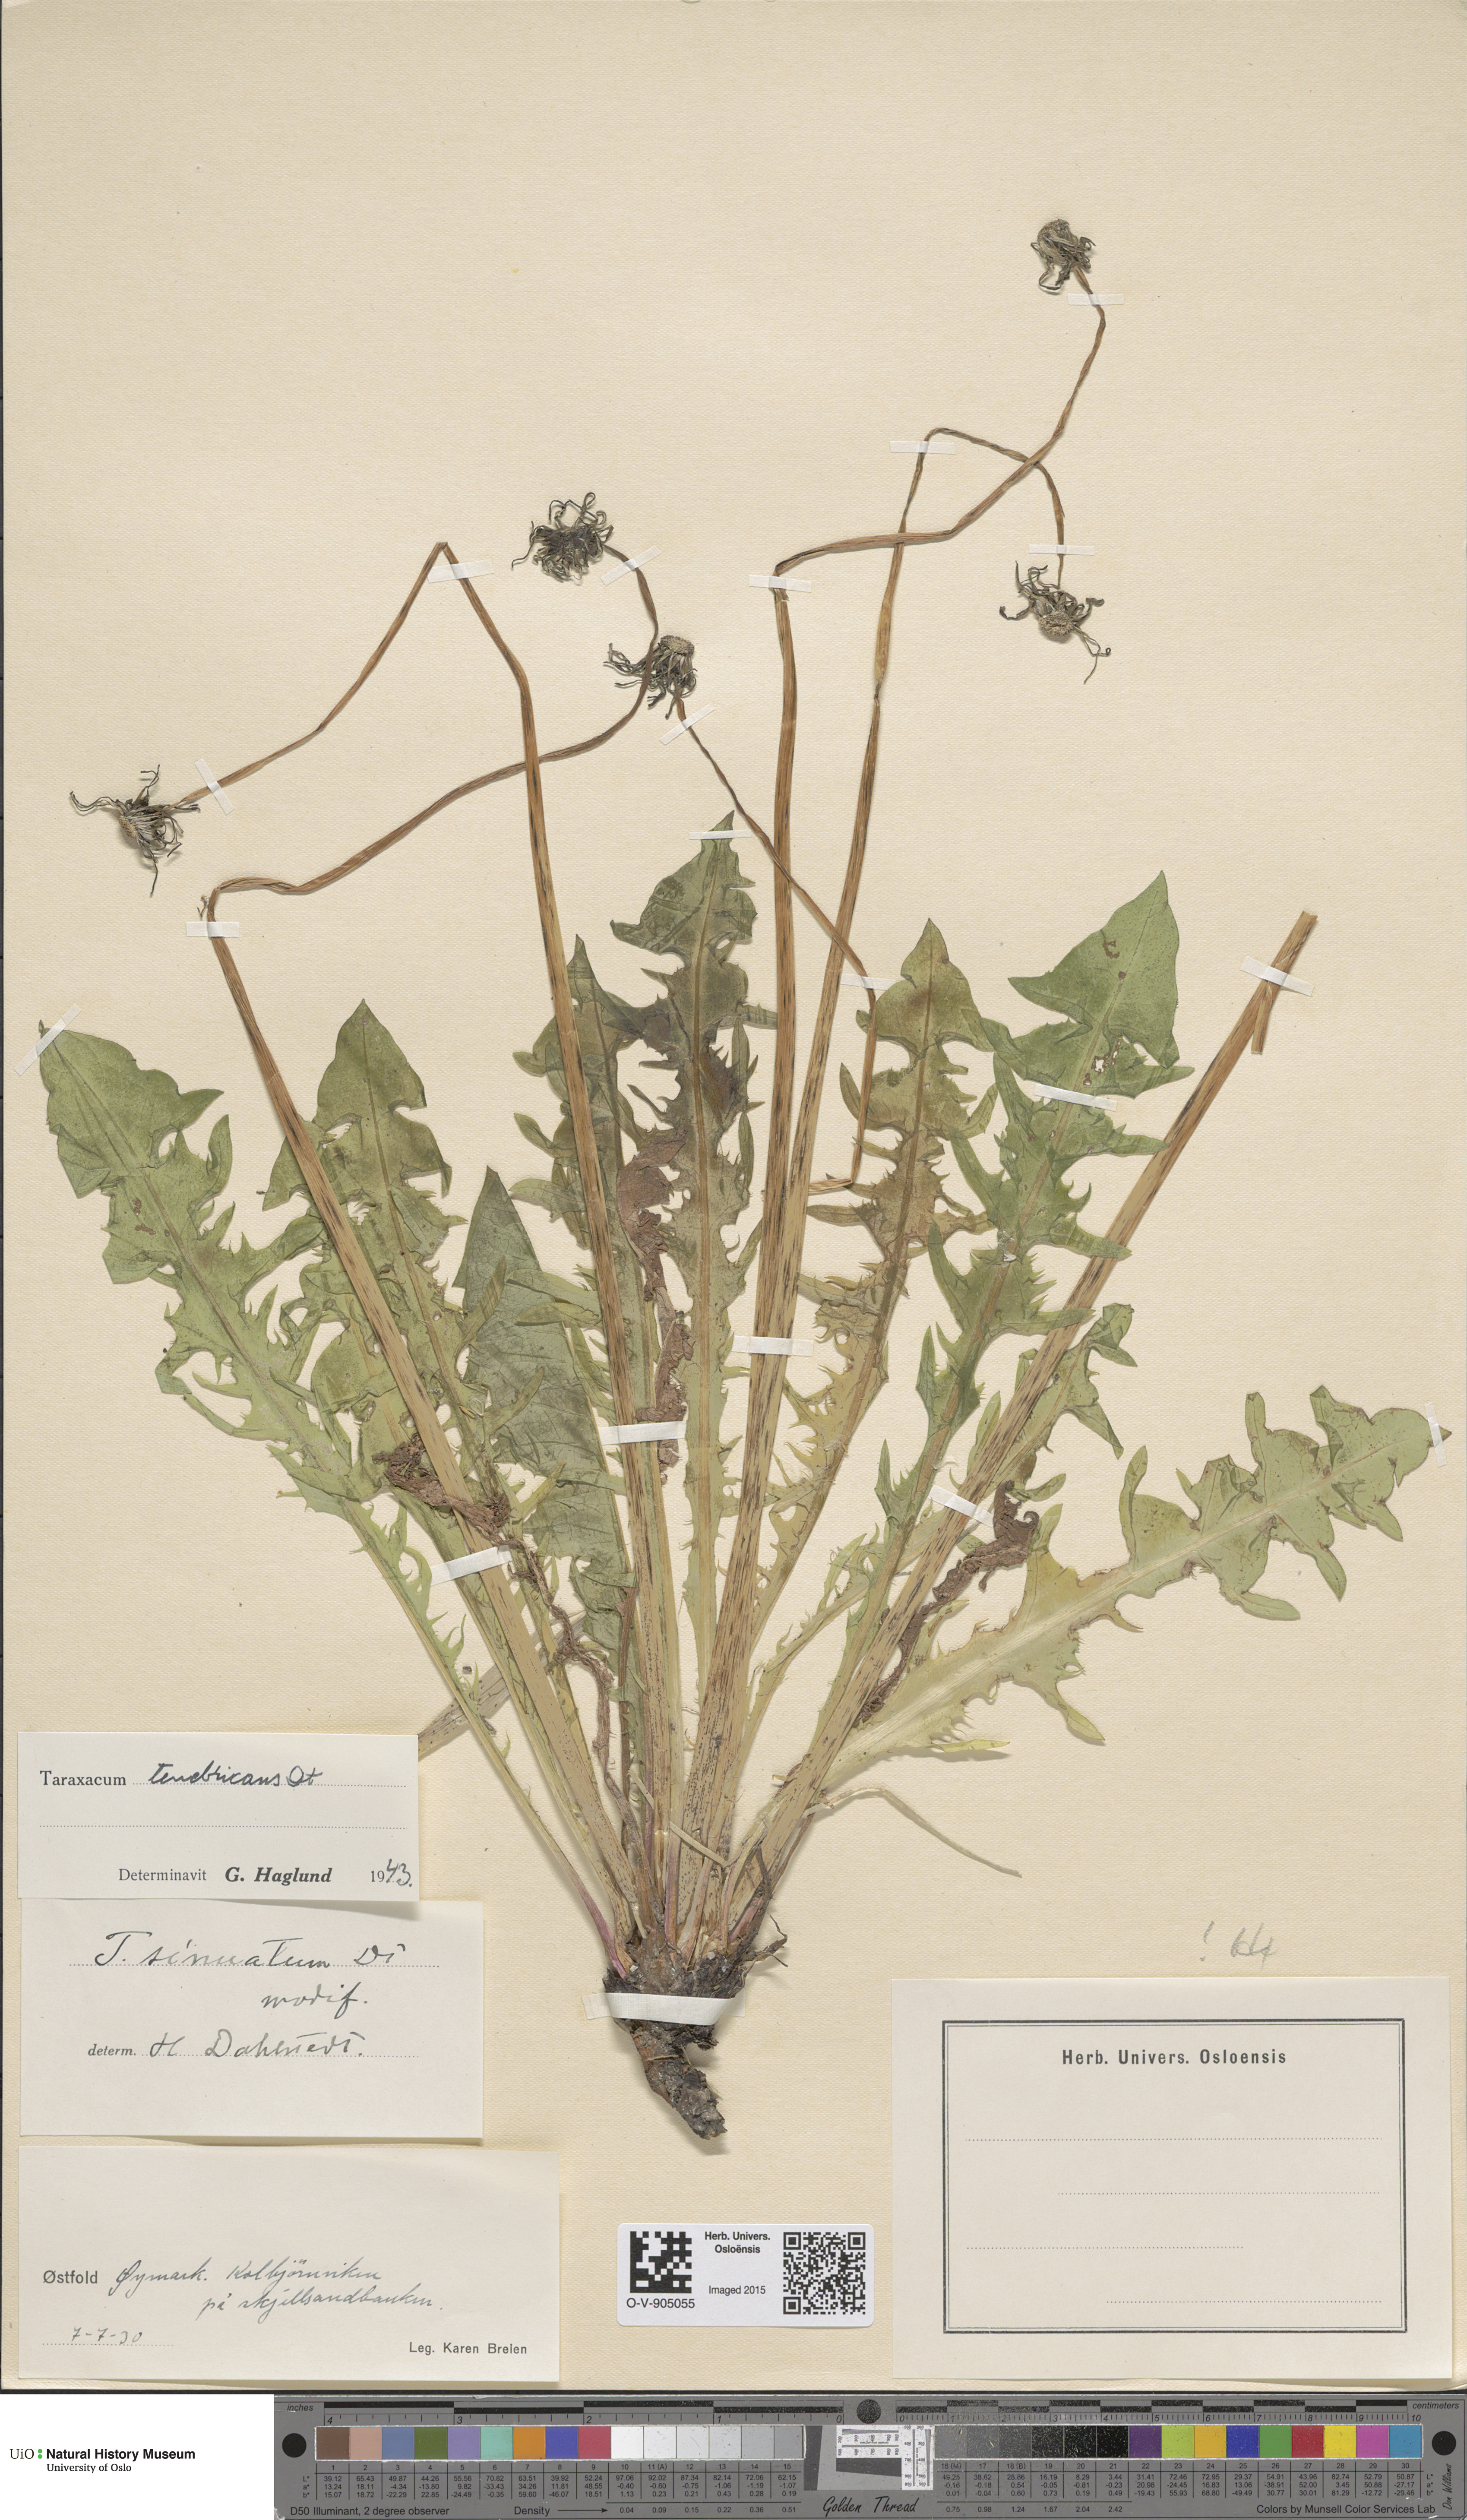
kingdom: Plantae
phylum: Tracheophyta
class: Magnoliopsida
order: Asterales
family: Asteraceae
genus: Taraxacum
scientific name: Taraxacum tenebricans
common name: Shiny-leaved dandelion
